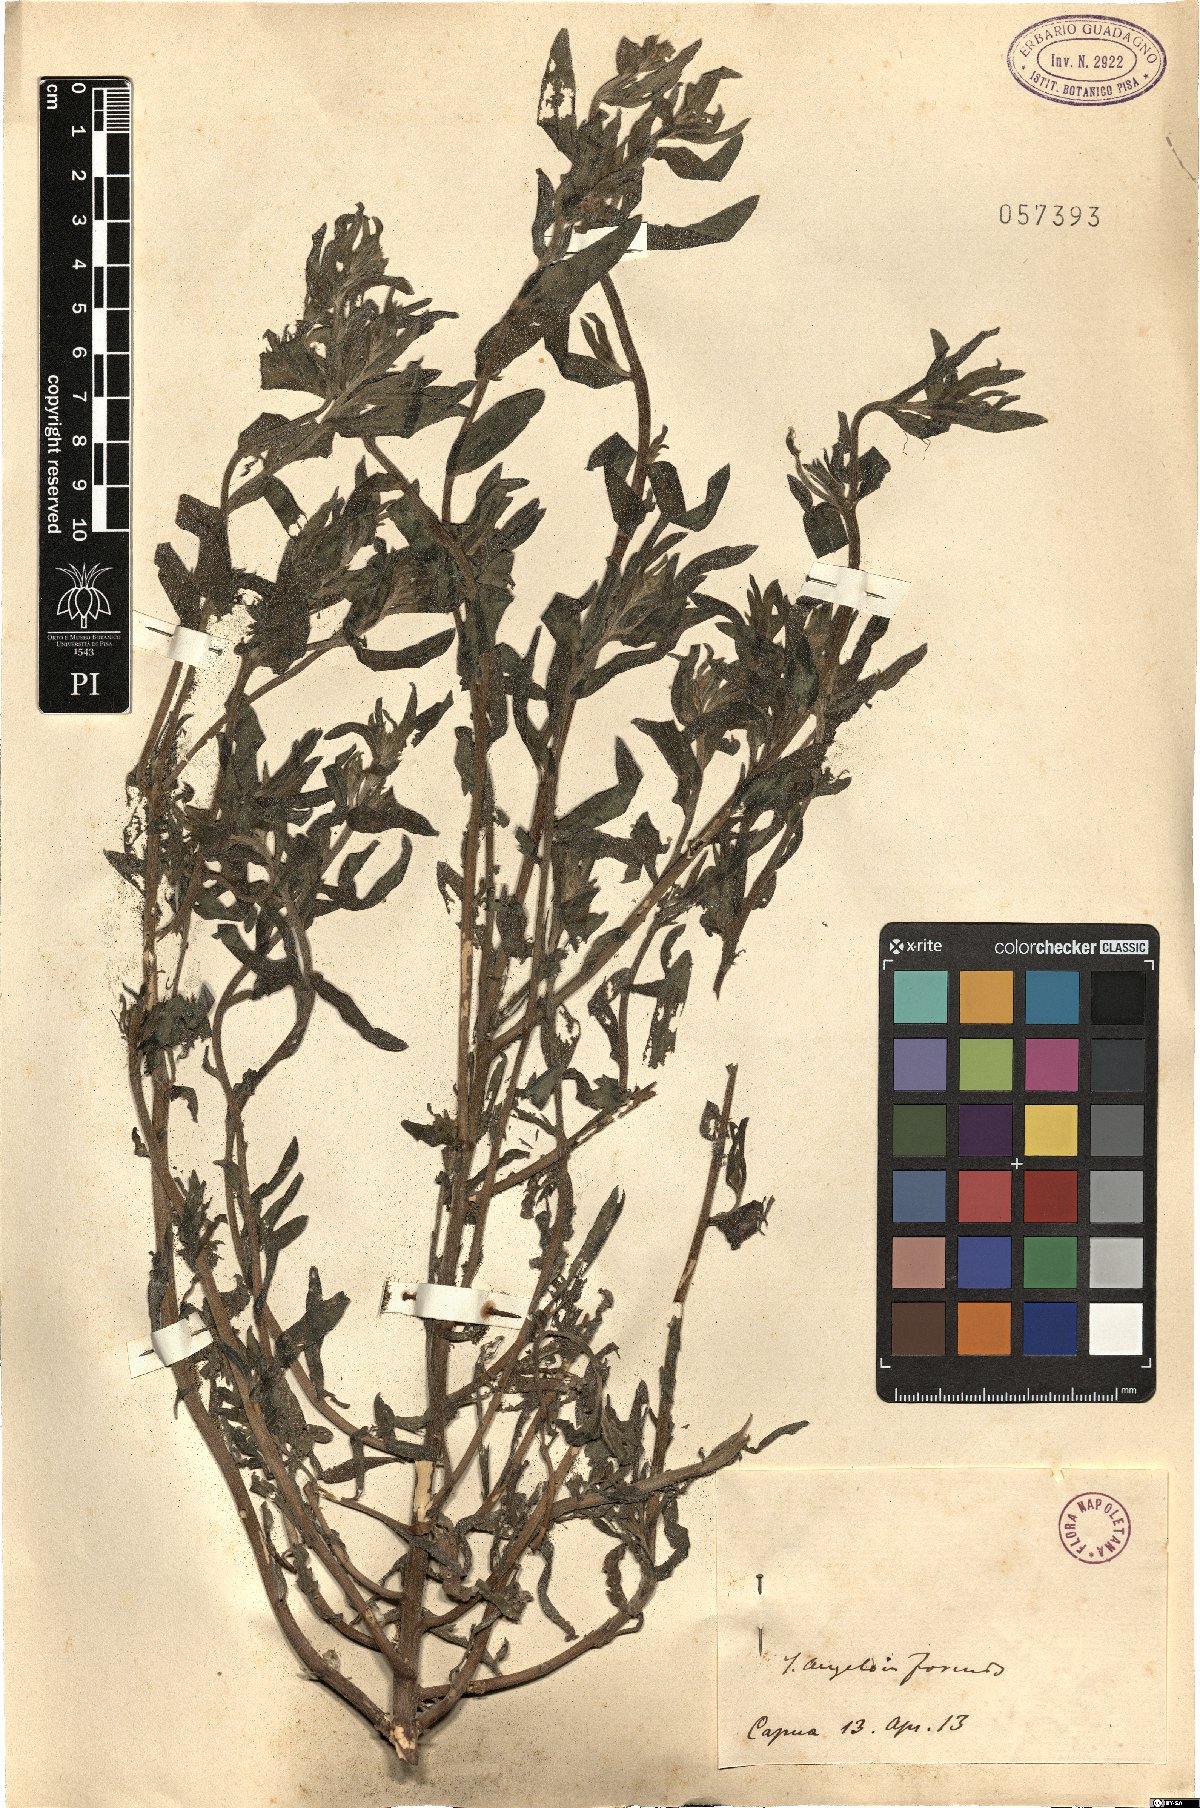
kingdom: Plantae
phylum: Tracheophyta
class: Magnoliopsida
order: Boraginales
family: Boraginaceae
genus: Lithospermum
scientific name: Lithospermum
